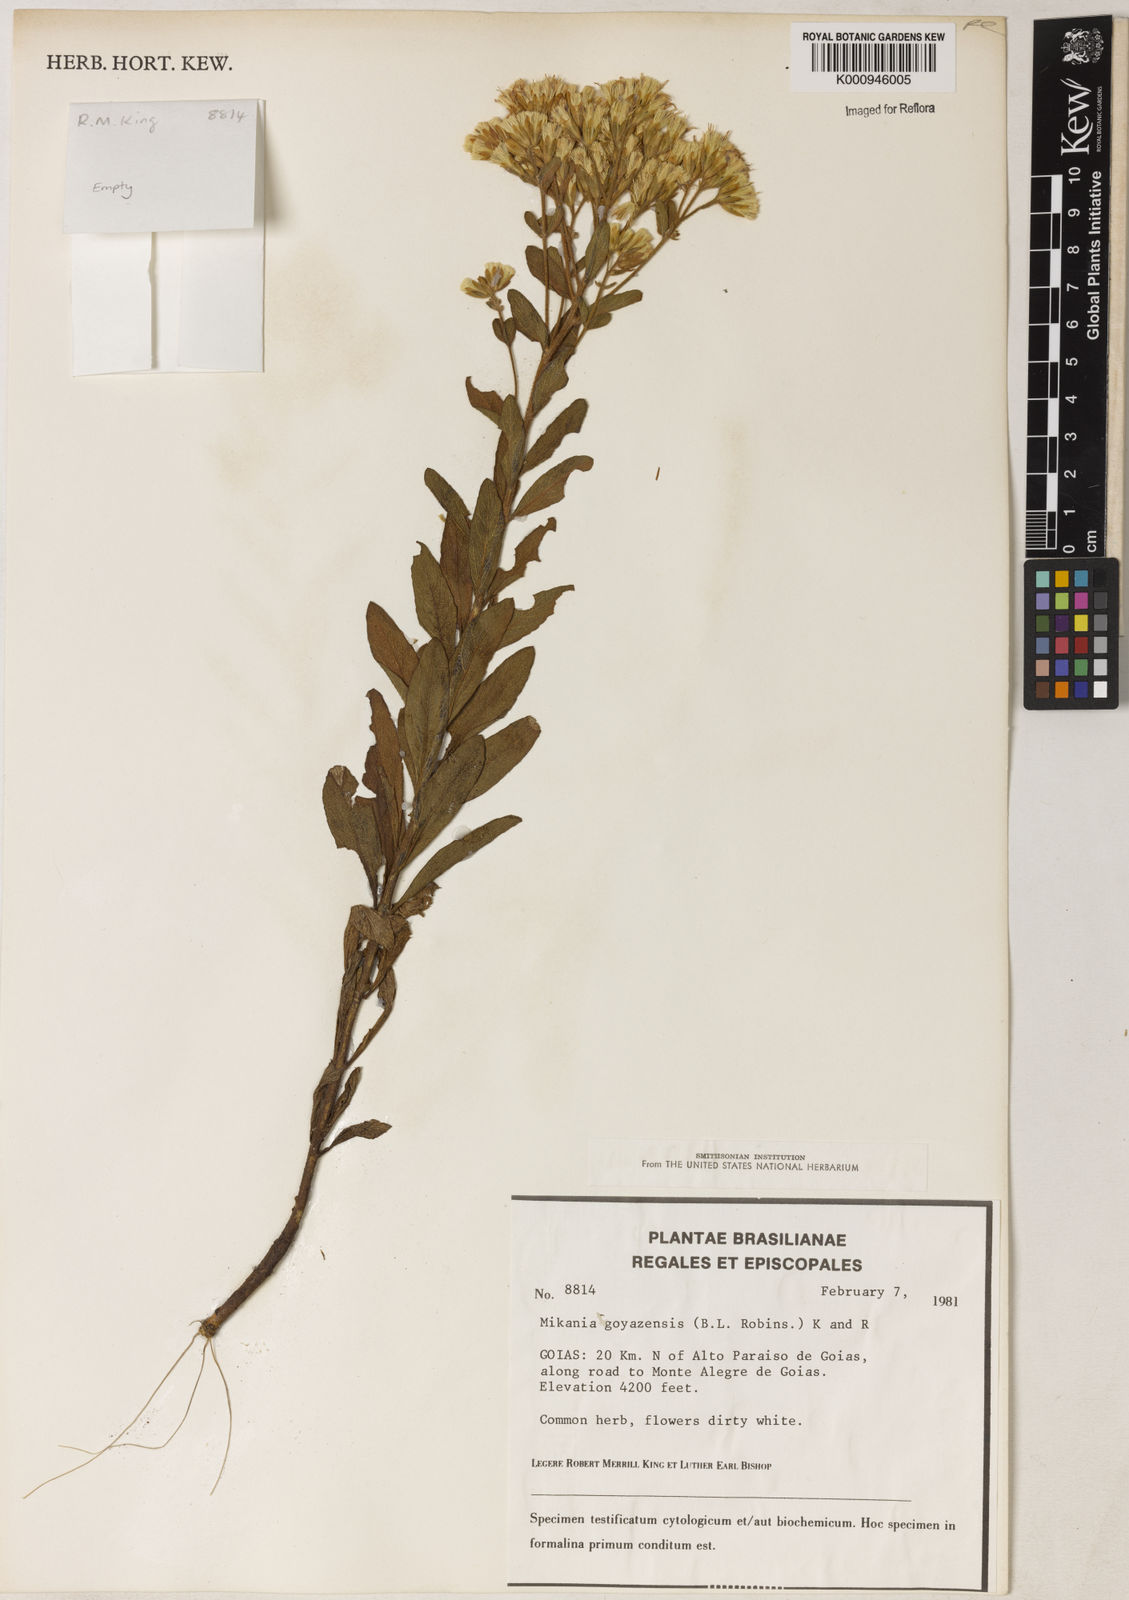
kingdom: Plantae
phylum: Tracheophyta
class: Magnoliopsida
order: Asterales
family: Asteraceae
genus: Mikania
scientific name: Mikania goyazensis
